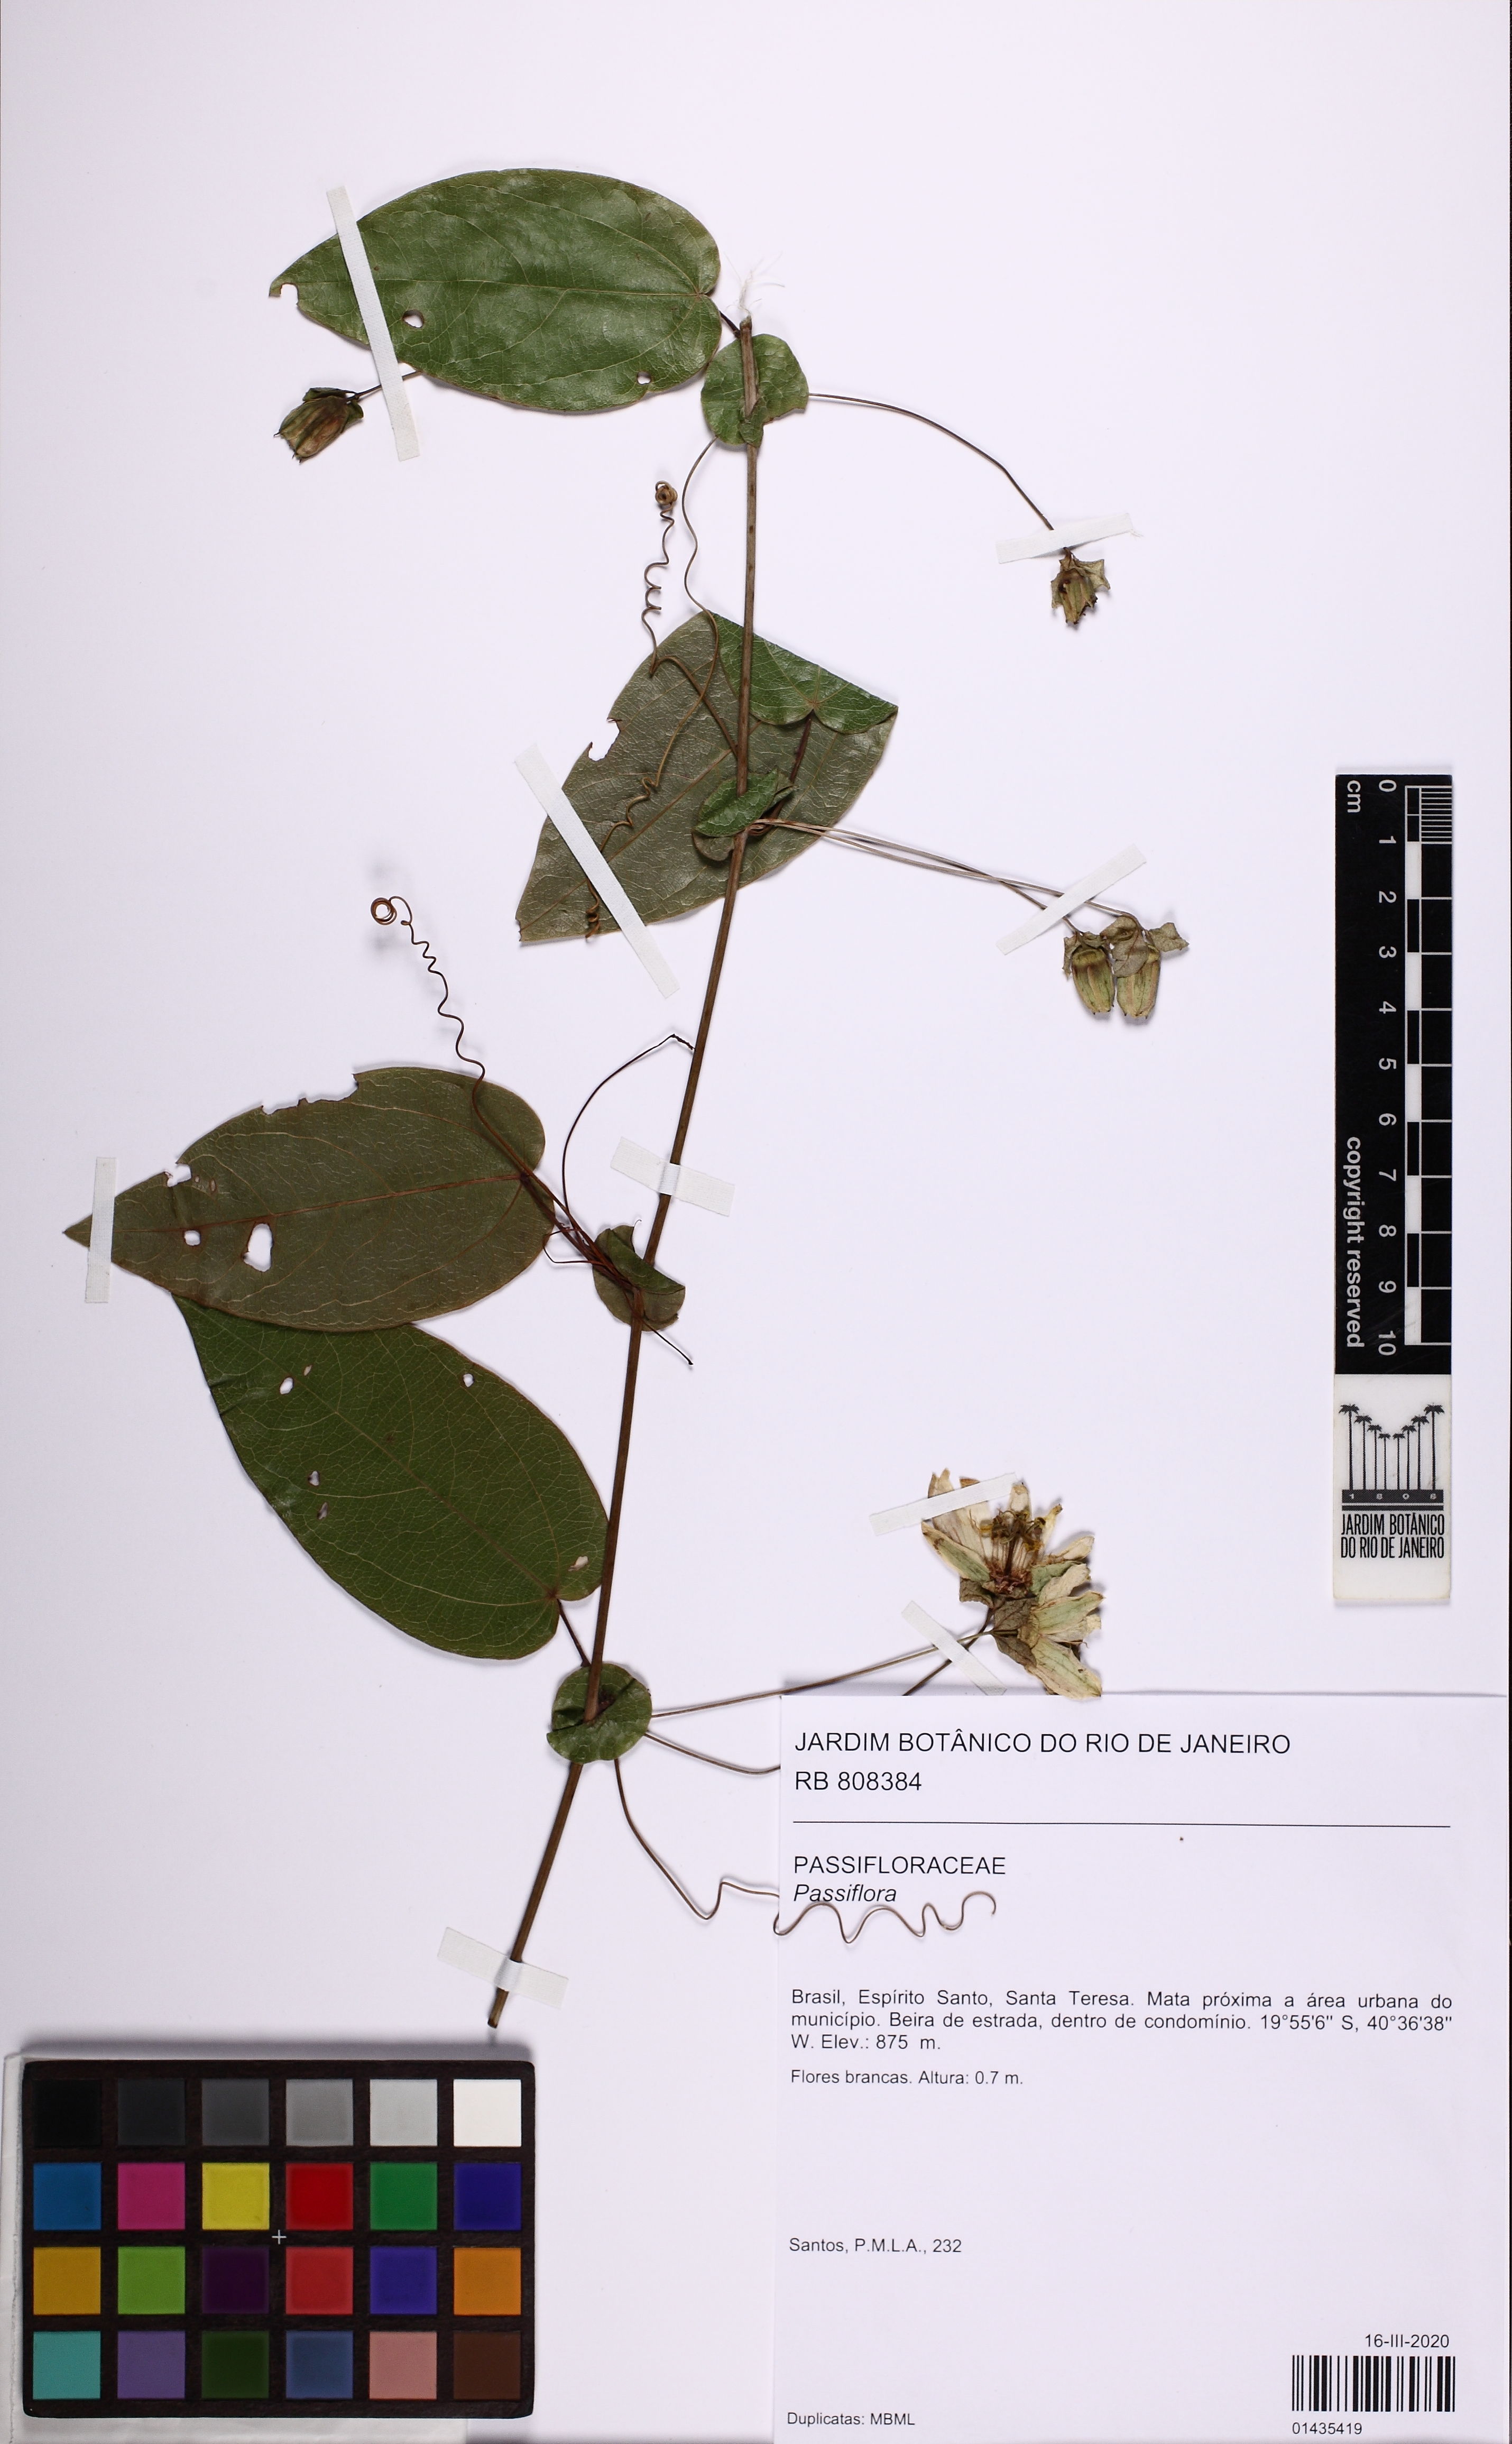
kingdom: Plantae
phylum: Tracheophyta
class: Magnoliopsida
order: Malpighiales
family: Passifloraceae
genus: Passiflora
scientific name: Passiflora
